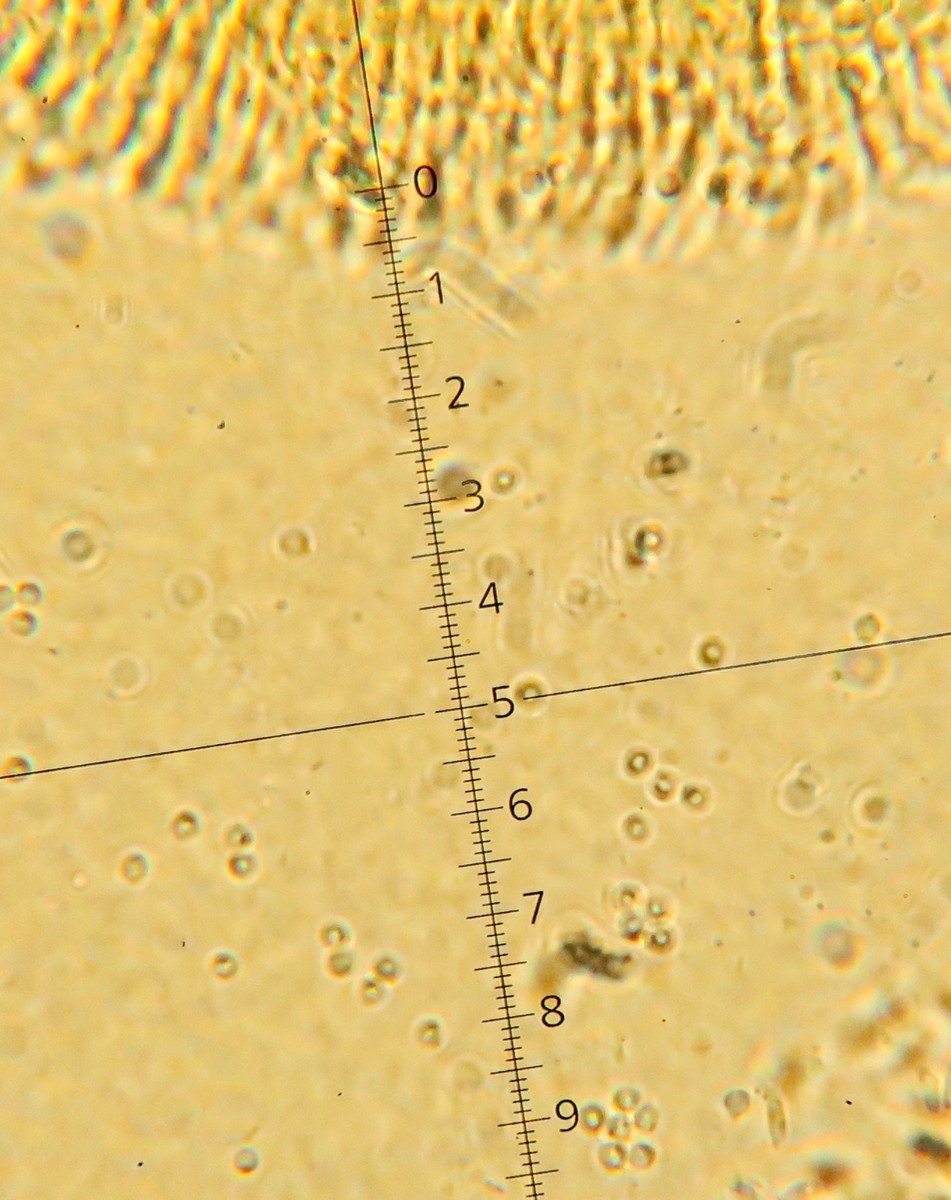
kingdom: Fungi
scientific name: Fungi
